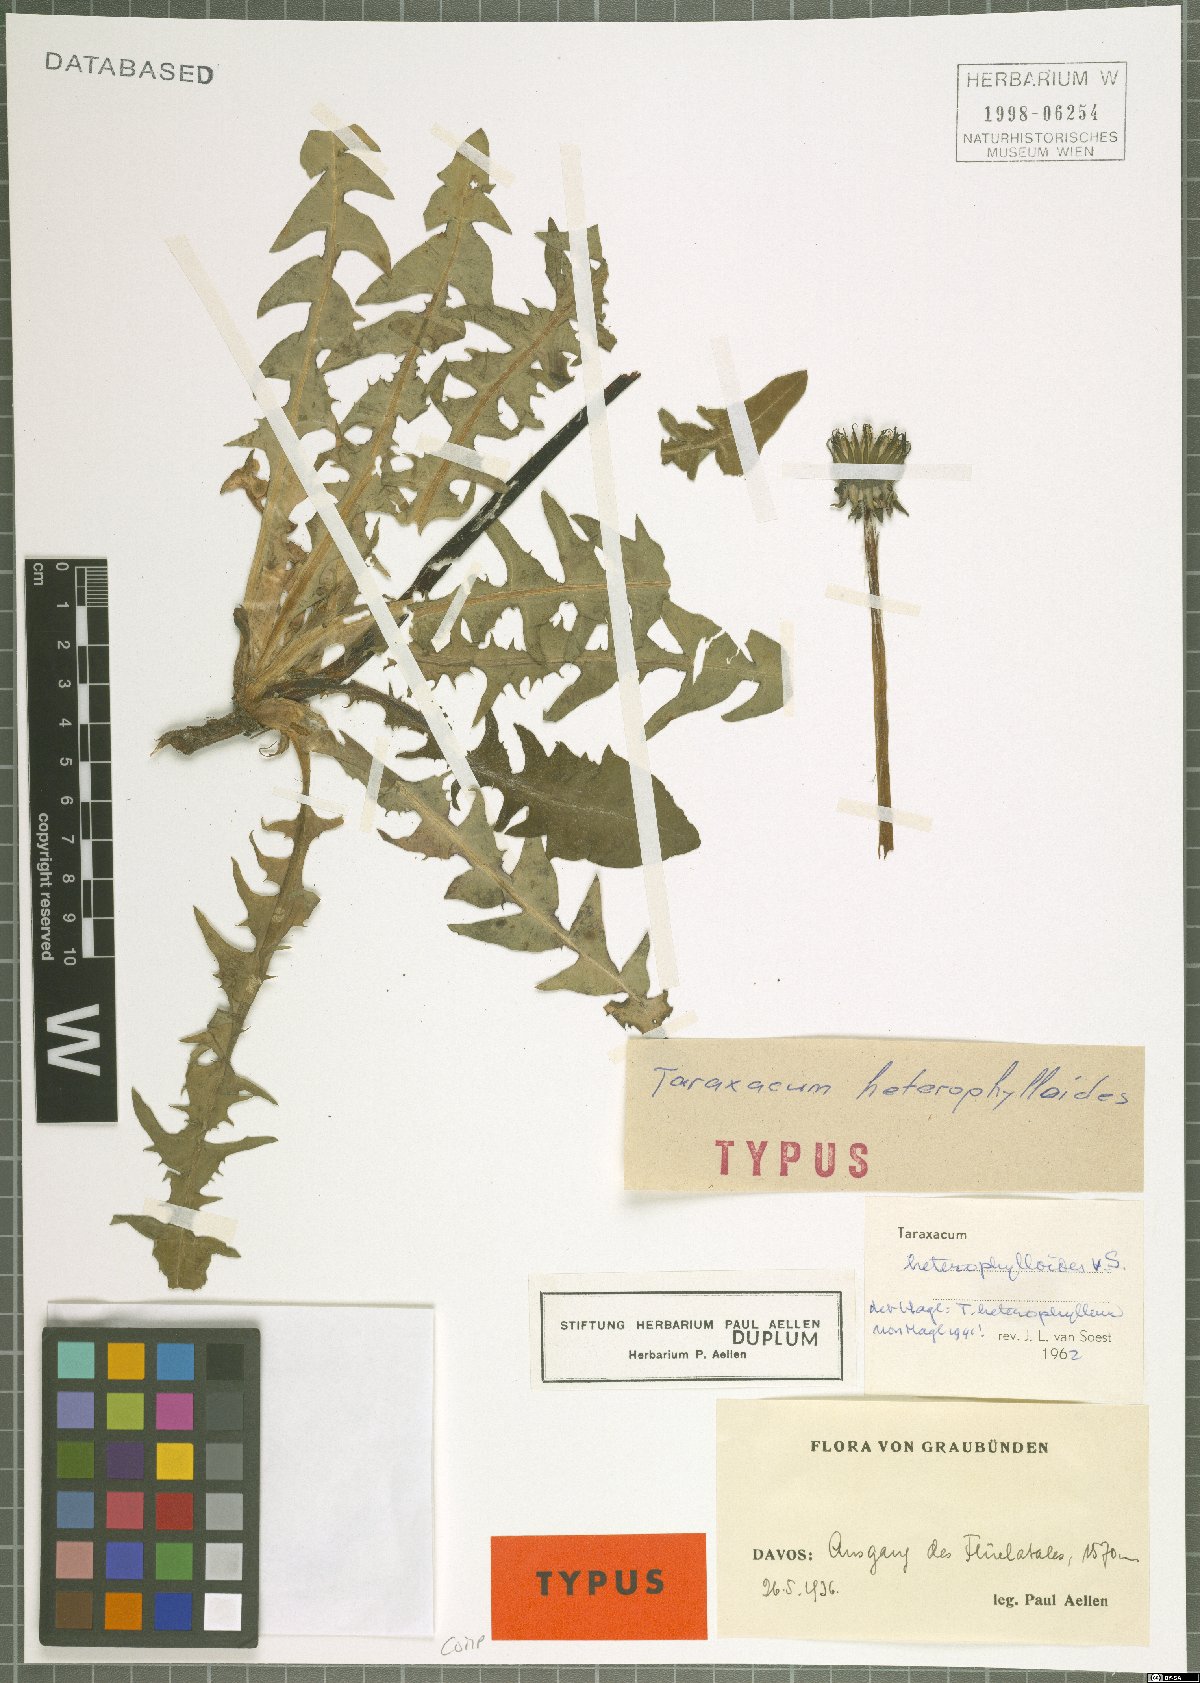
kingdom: Plantae
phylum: Tracheophyta
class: Magnoliopsida
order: Asterales
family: Asteraceae
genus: Taraxacum
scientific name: Taraxacum heterophylloides
